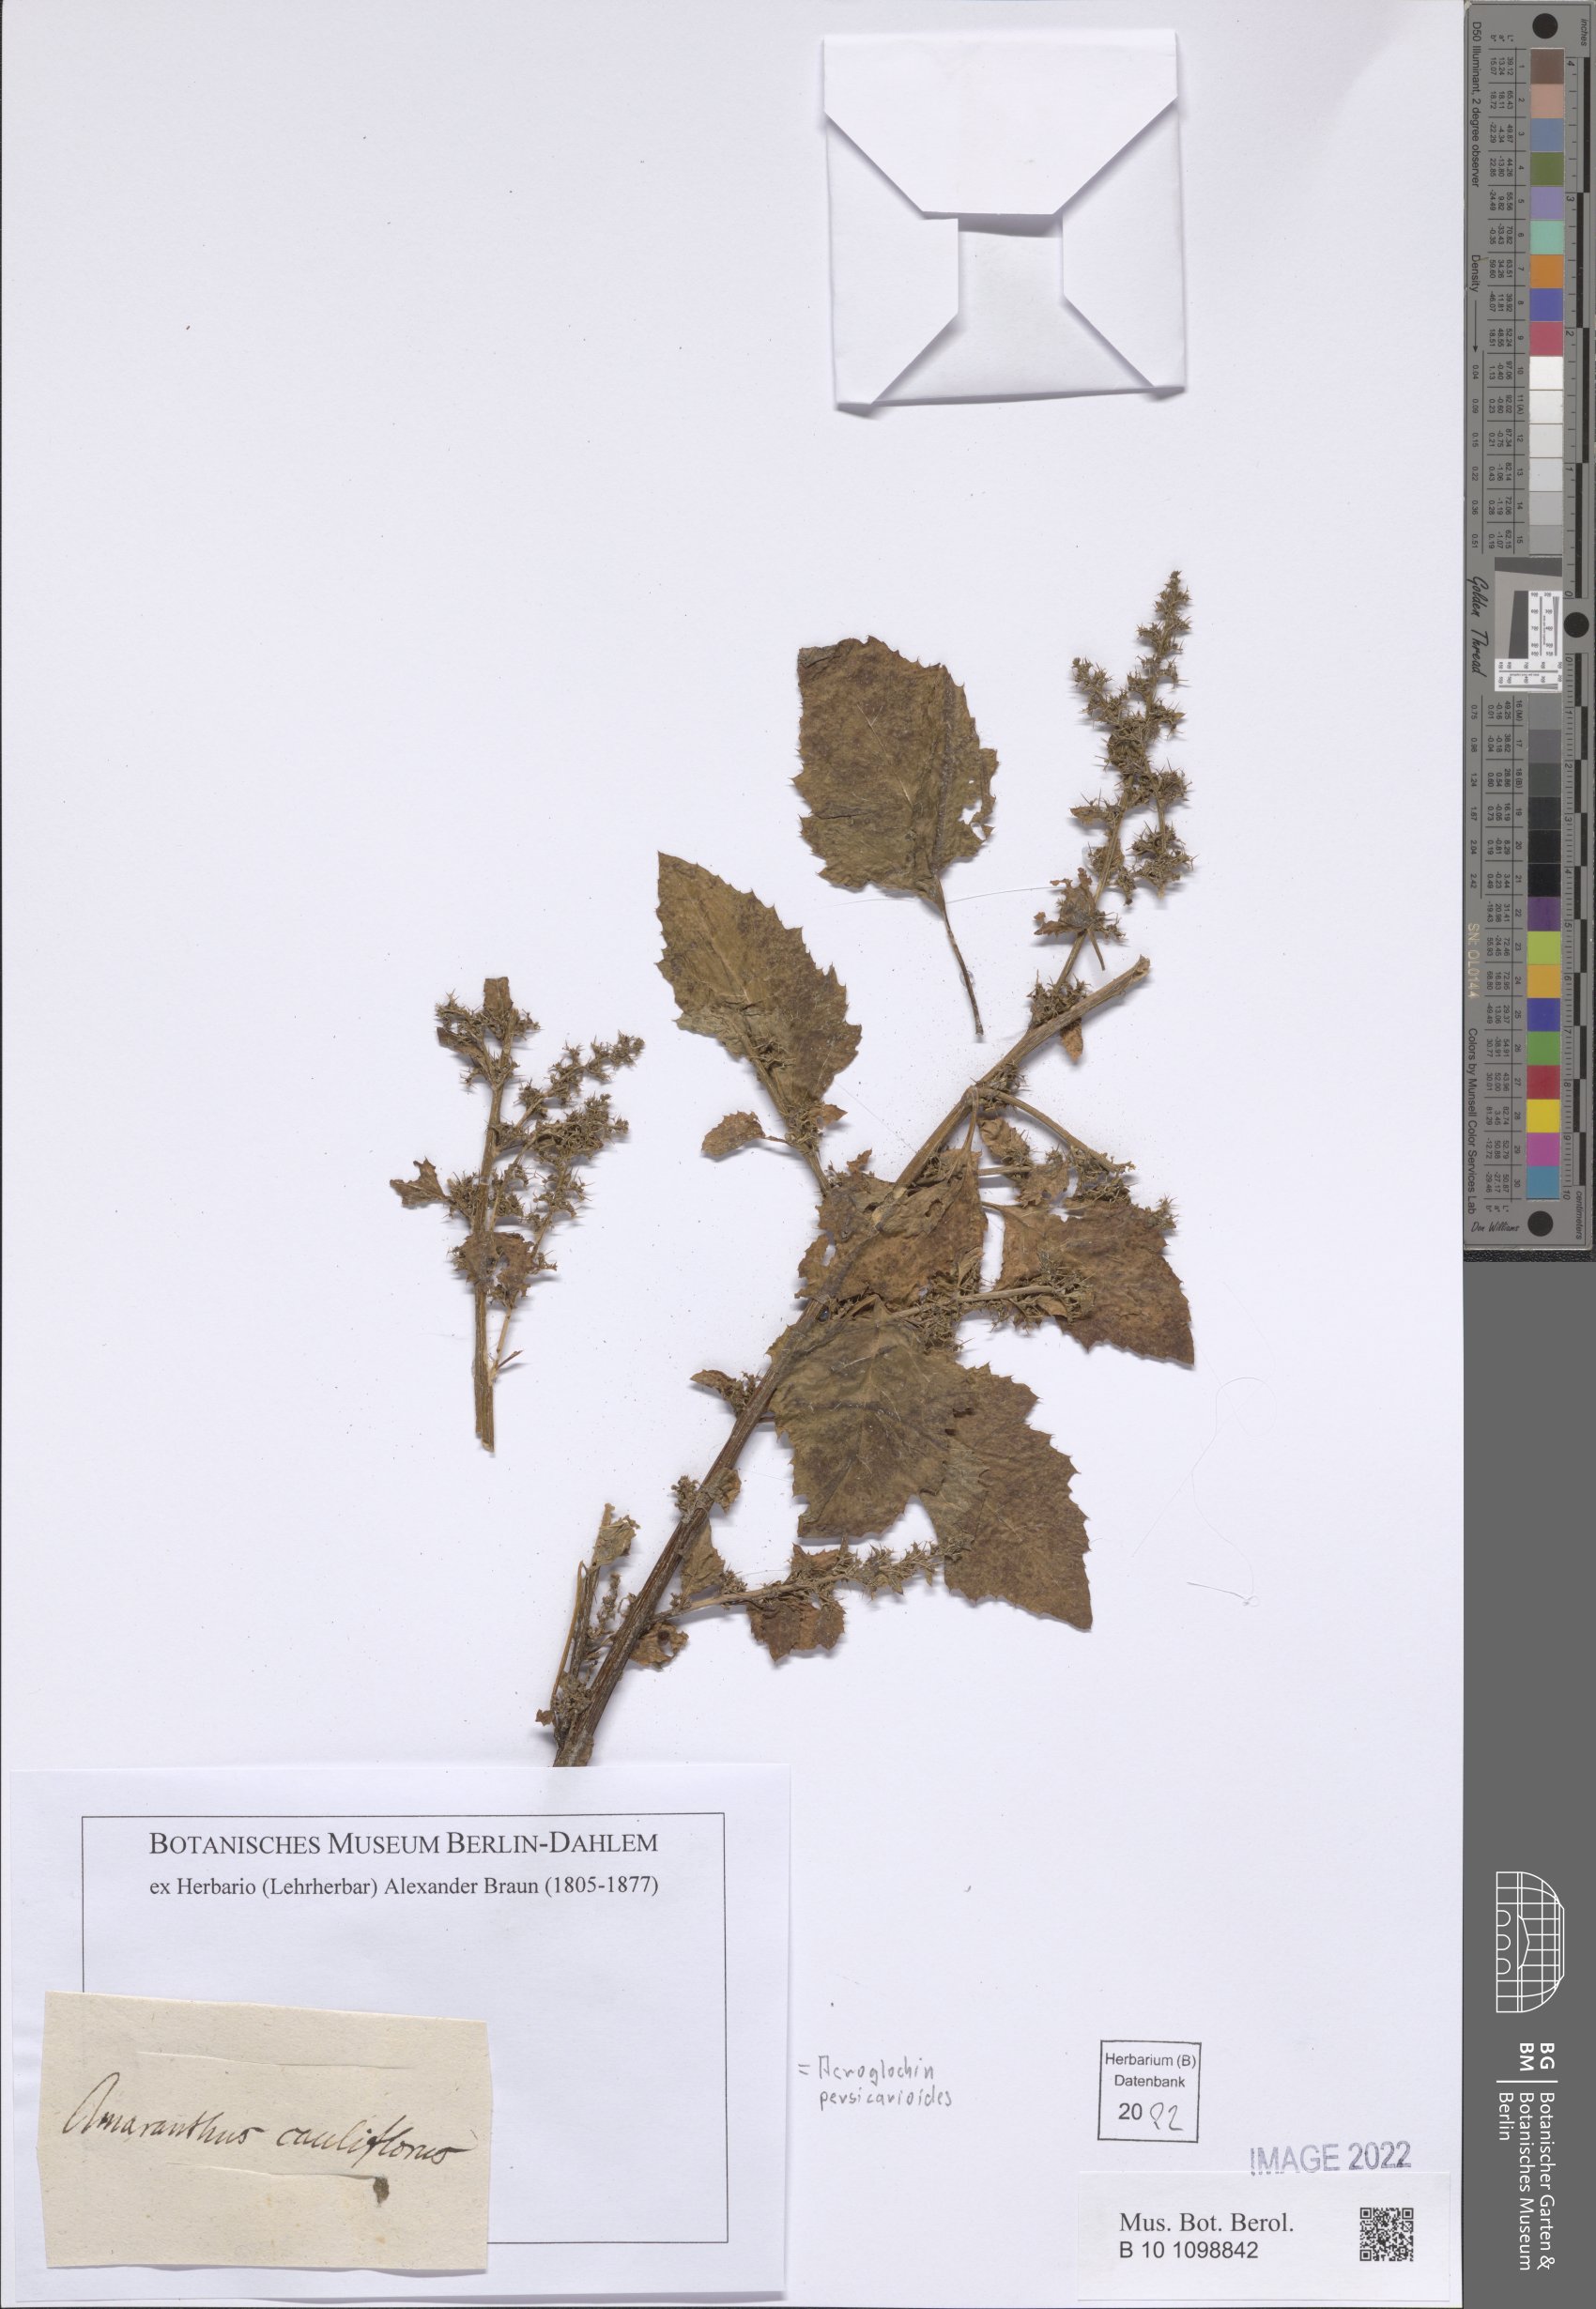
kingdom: Plantae
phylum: Tracheophyta
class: Magnoliopsida
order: Caryophyllales
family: Amaranthaceae
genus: Acroglochin
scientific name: Acroglochin persicarioides
